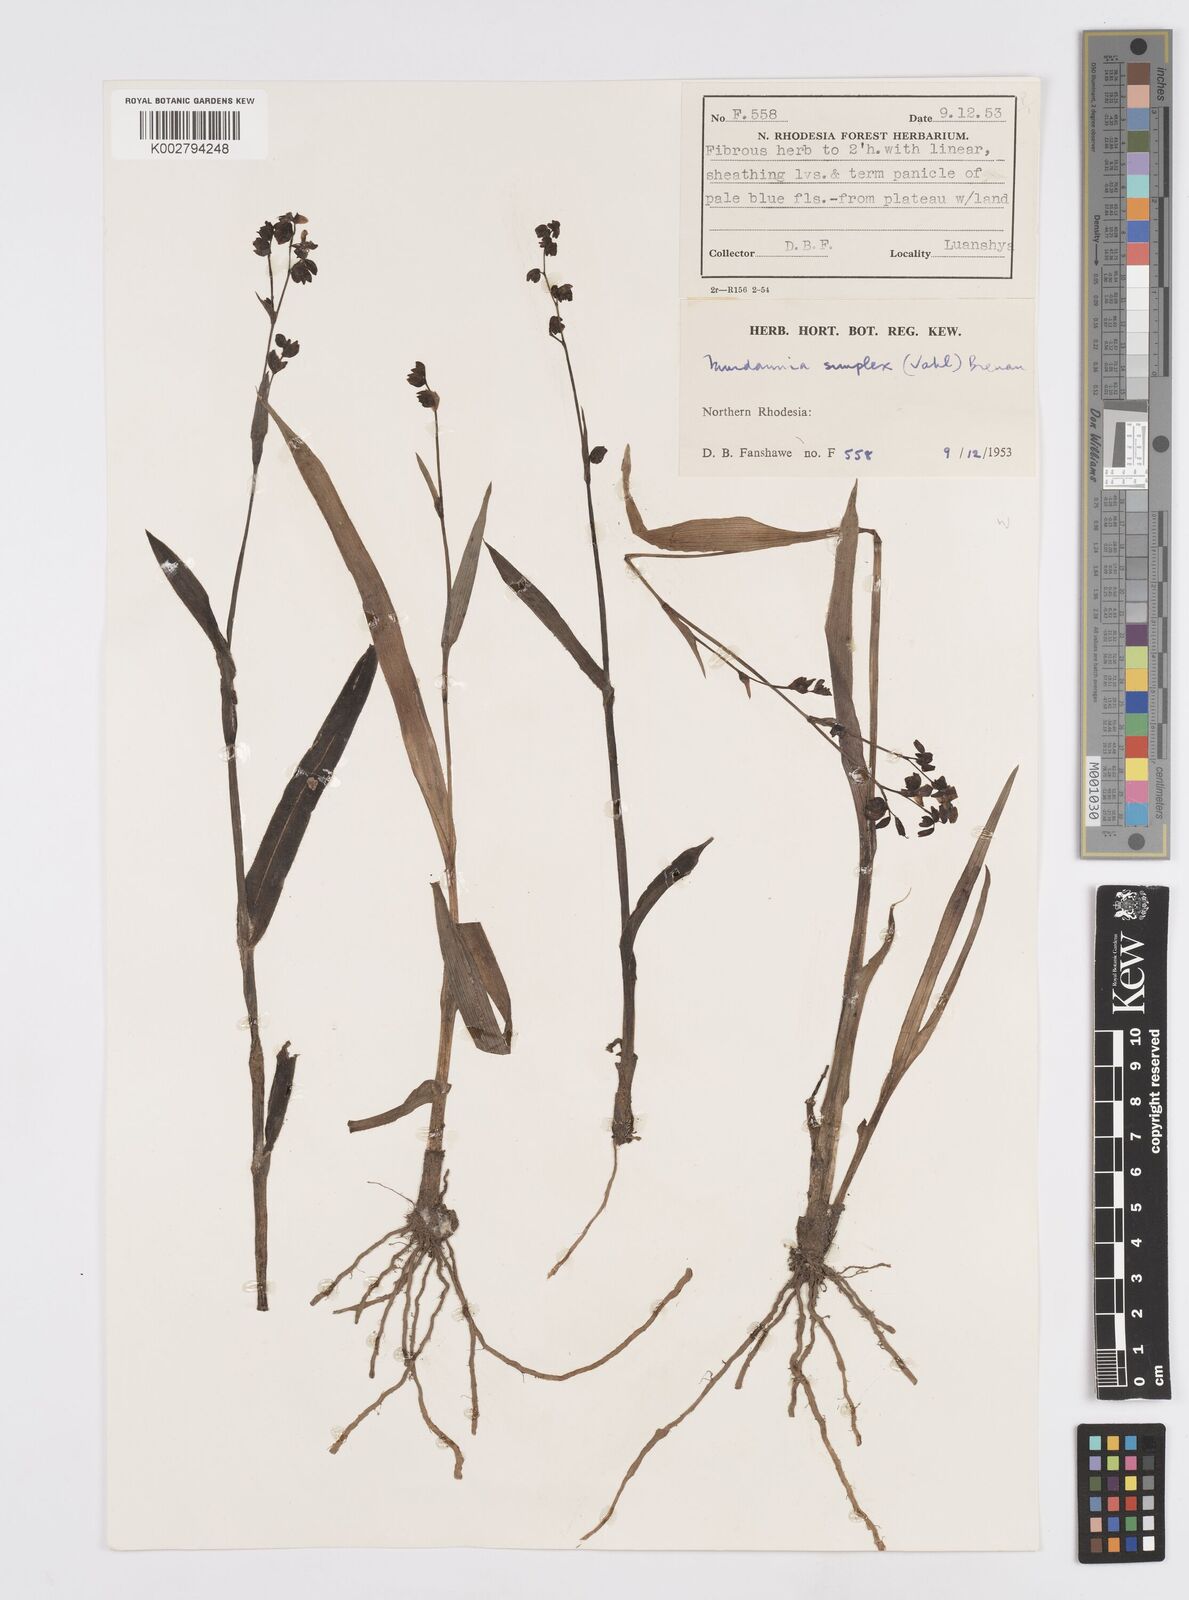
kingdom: Plantae
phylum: Tracheophyta
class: Liliopsida
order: Commelinales
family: Commelinaceae
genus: Murdannia
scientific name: Murdannia simplex
